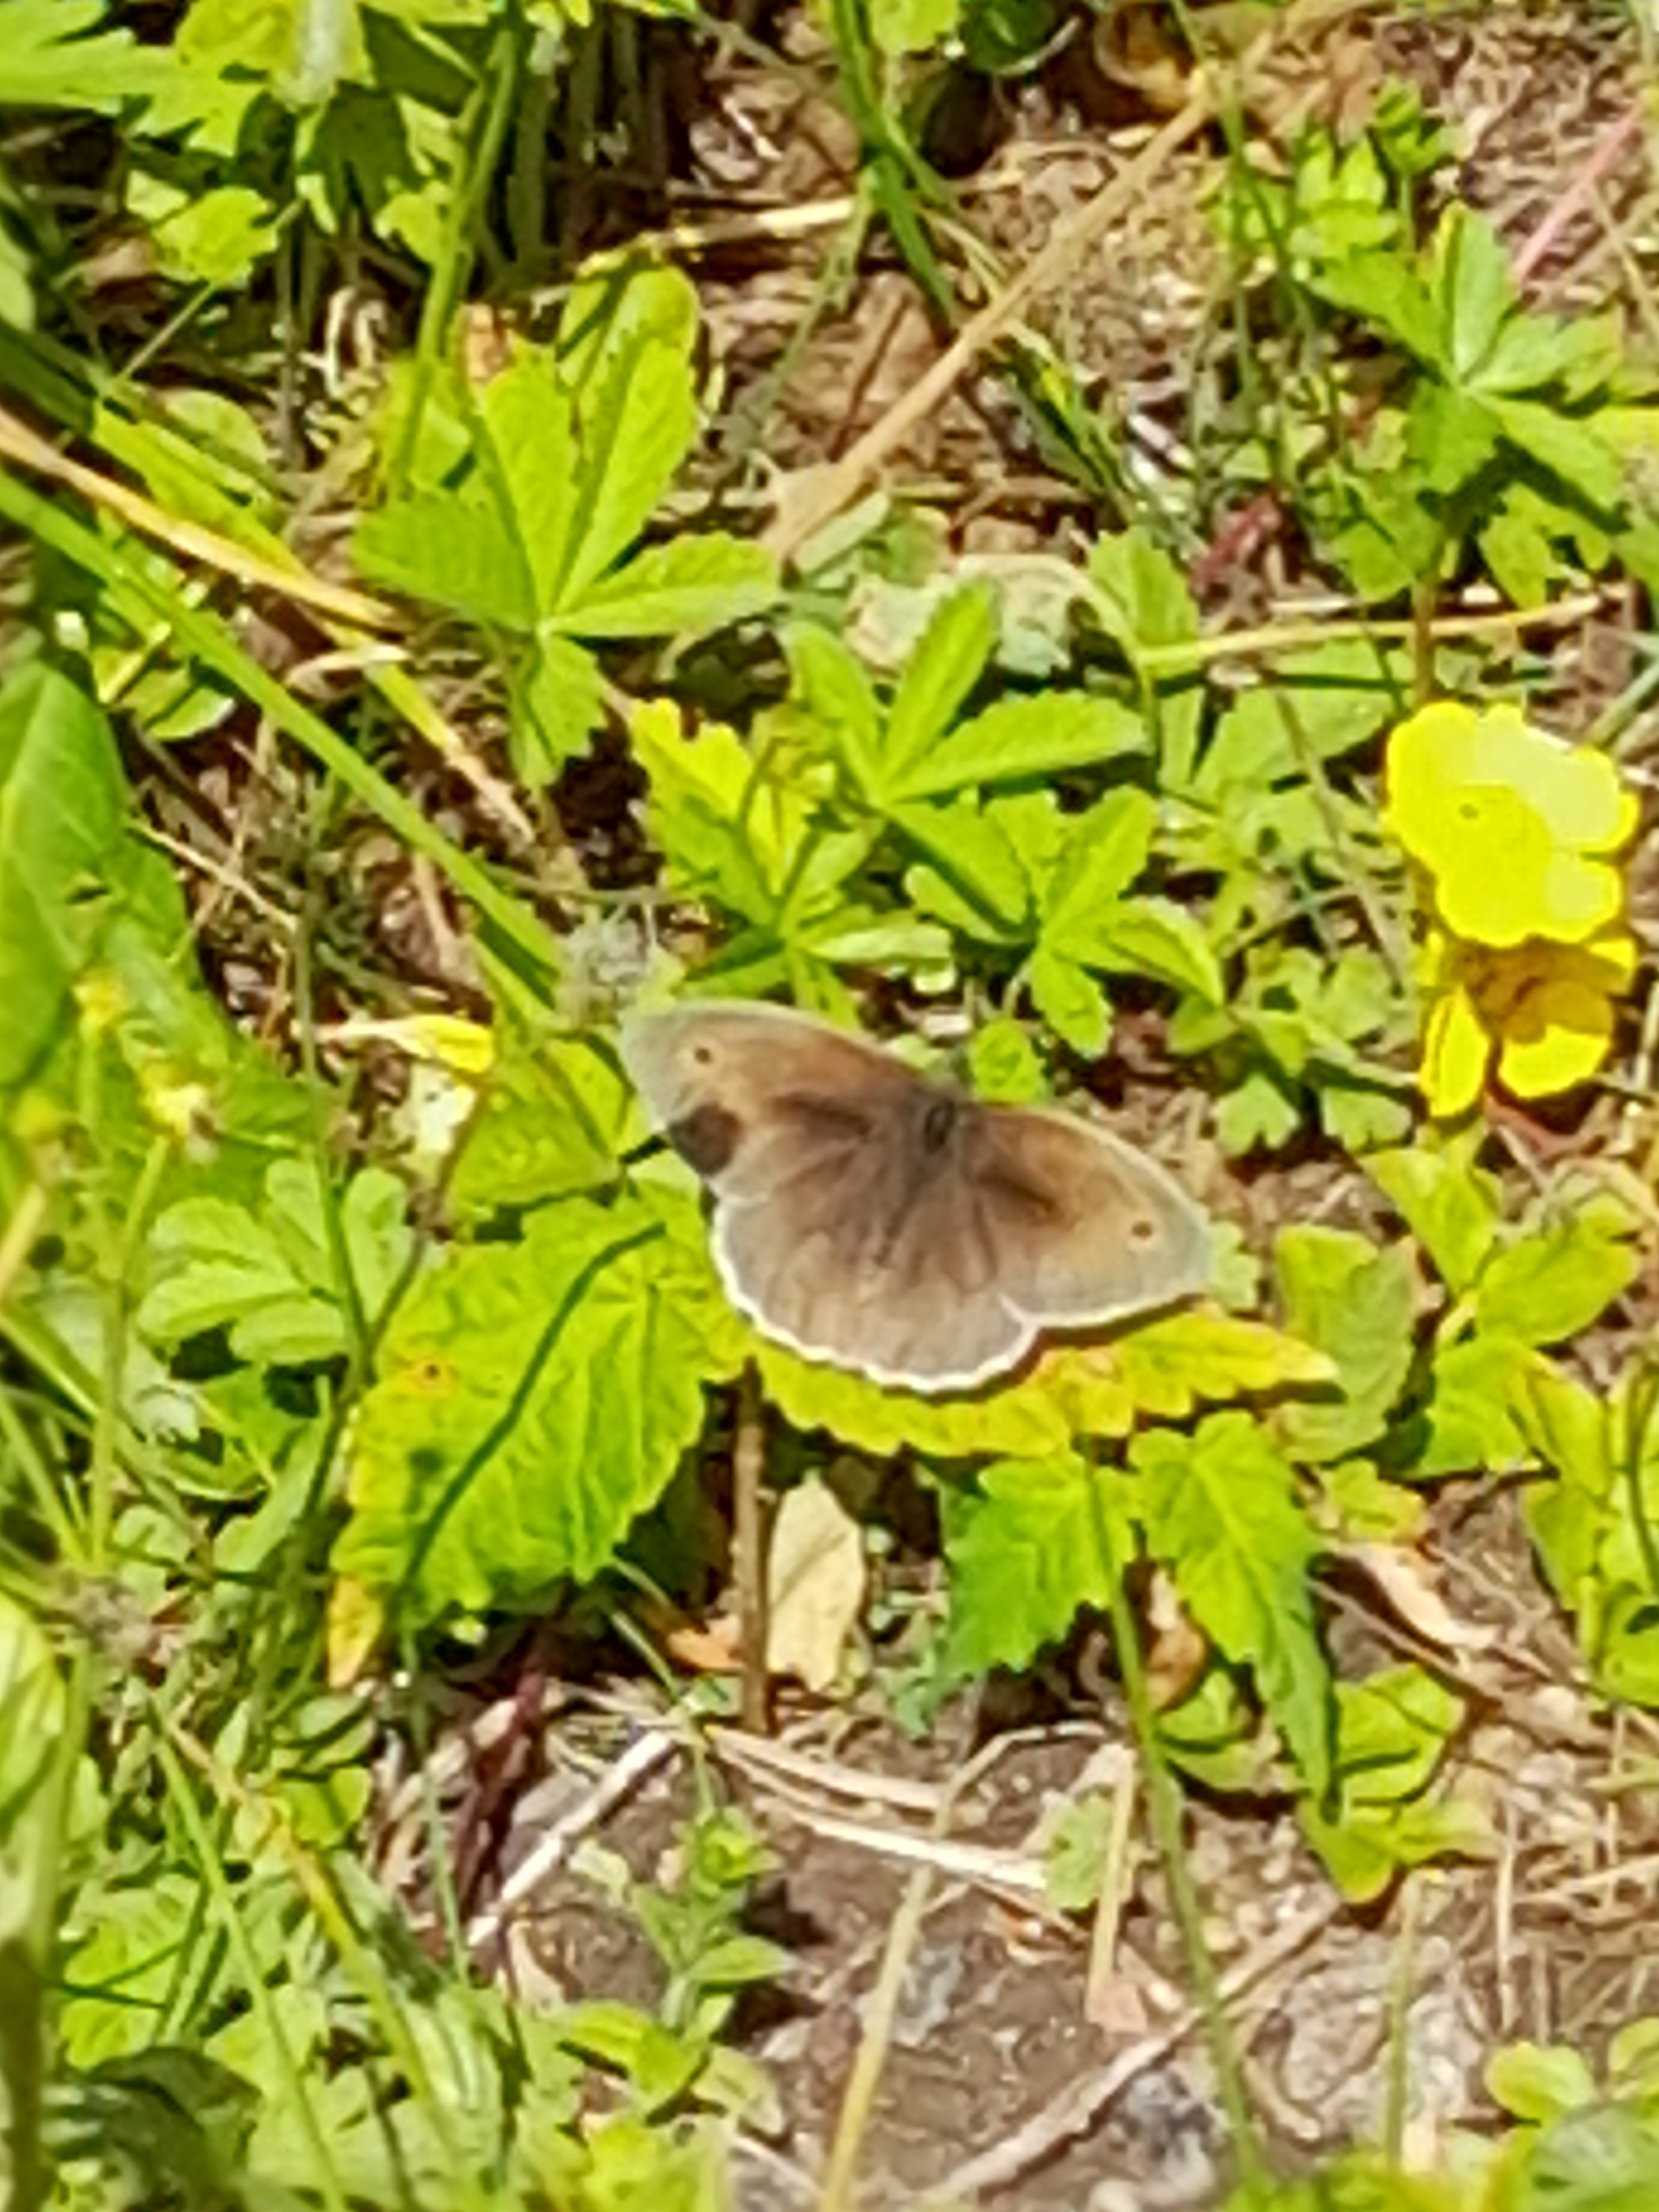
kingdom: Animalia
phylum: Arthropoda
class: Insecta
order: Lepidoptera
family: Nymphalidae
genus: Maniola
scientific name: Maniola jurtina
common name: Græsrandøje
